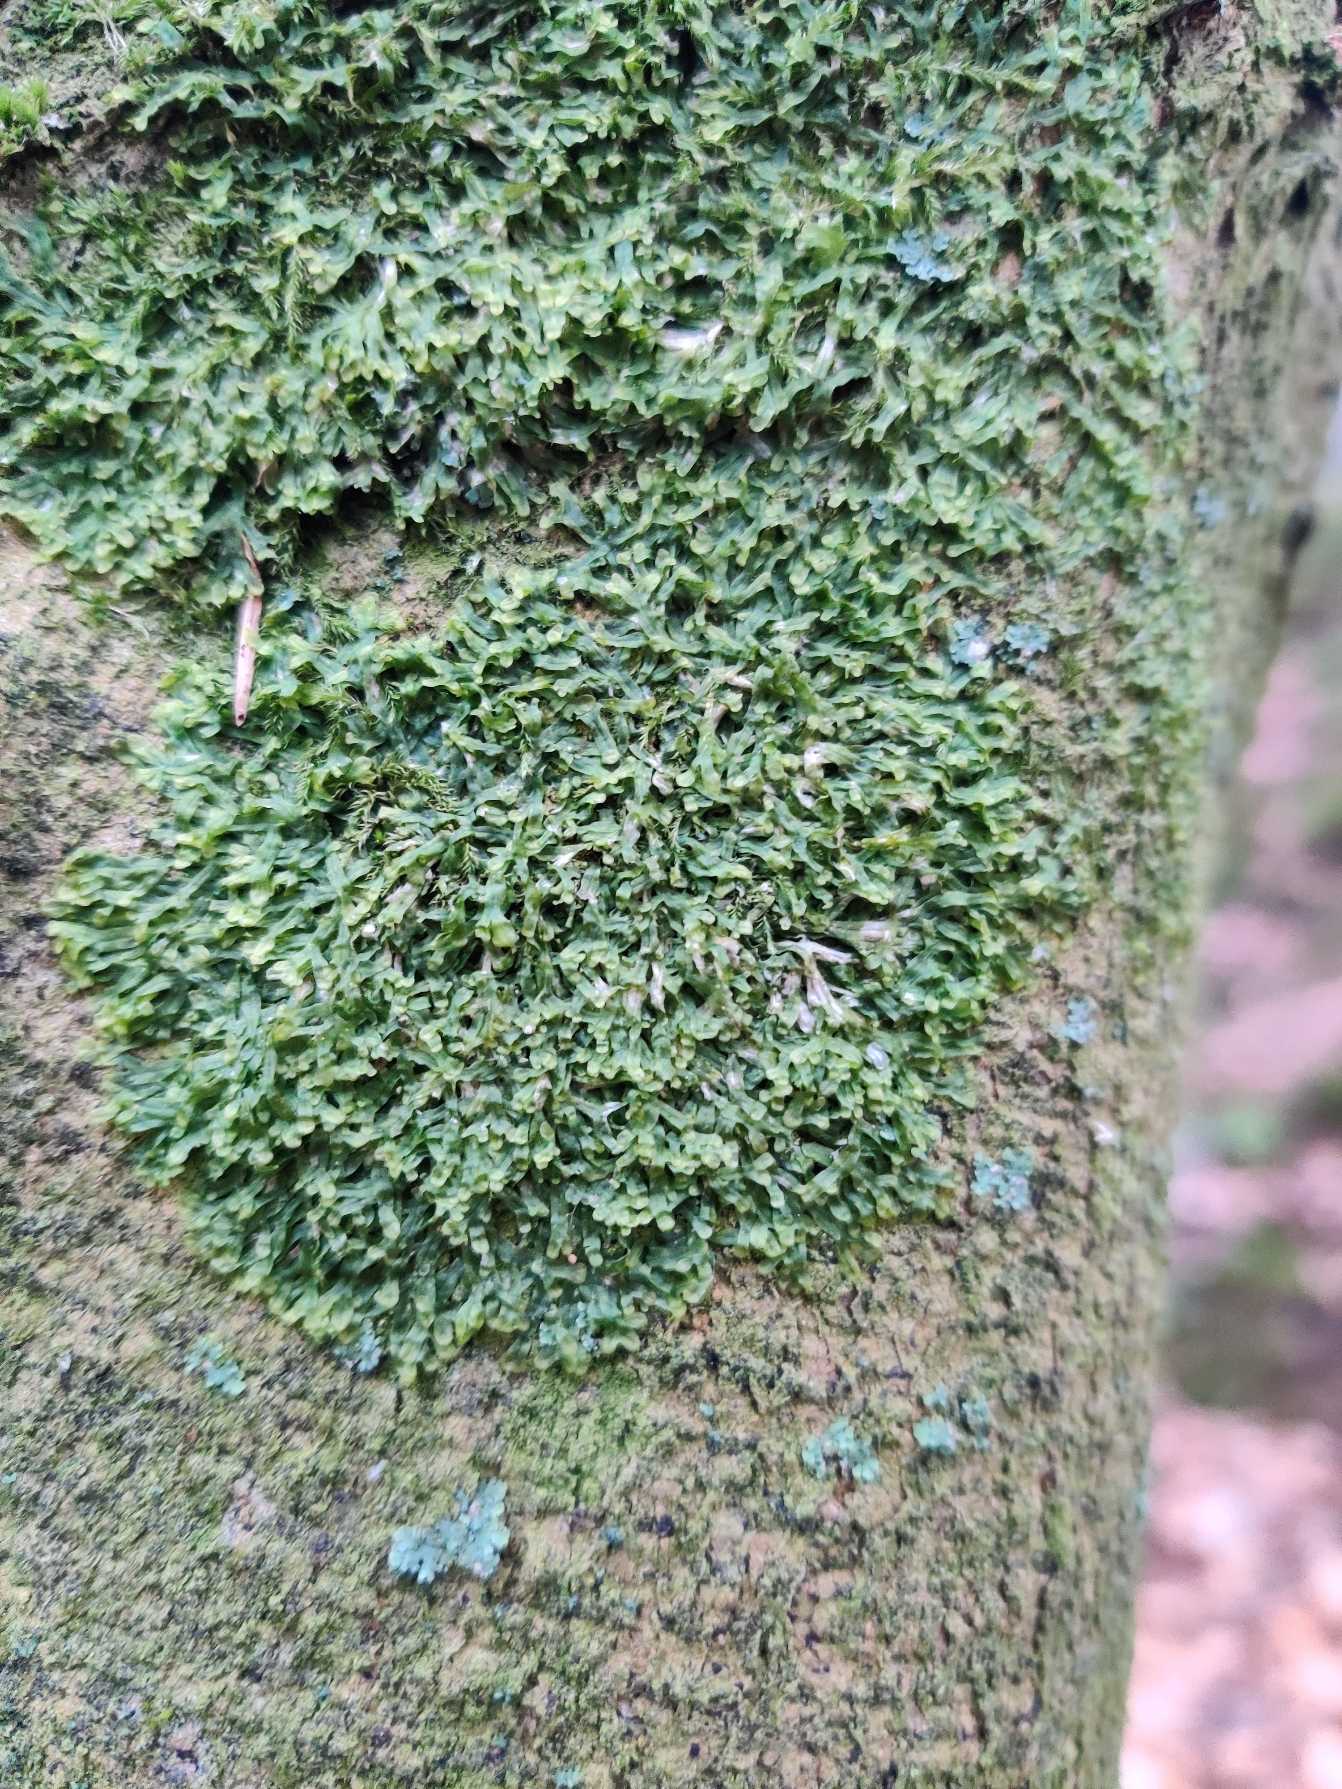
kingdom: Plantae
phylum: Marchantiophyta
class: Jungermanniopsida
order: Metzgeriales
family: Metzgeriaceae
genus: Metzgeria
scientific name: Metzgeria furcata
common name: Almindelig gaffelløv
